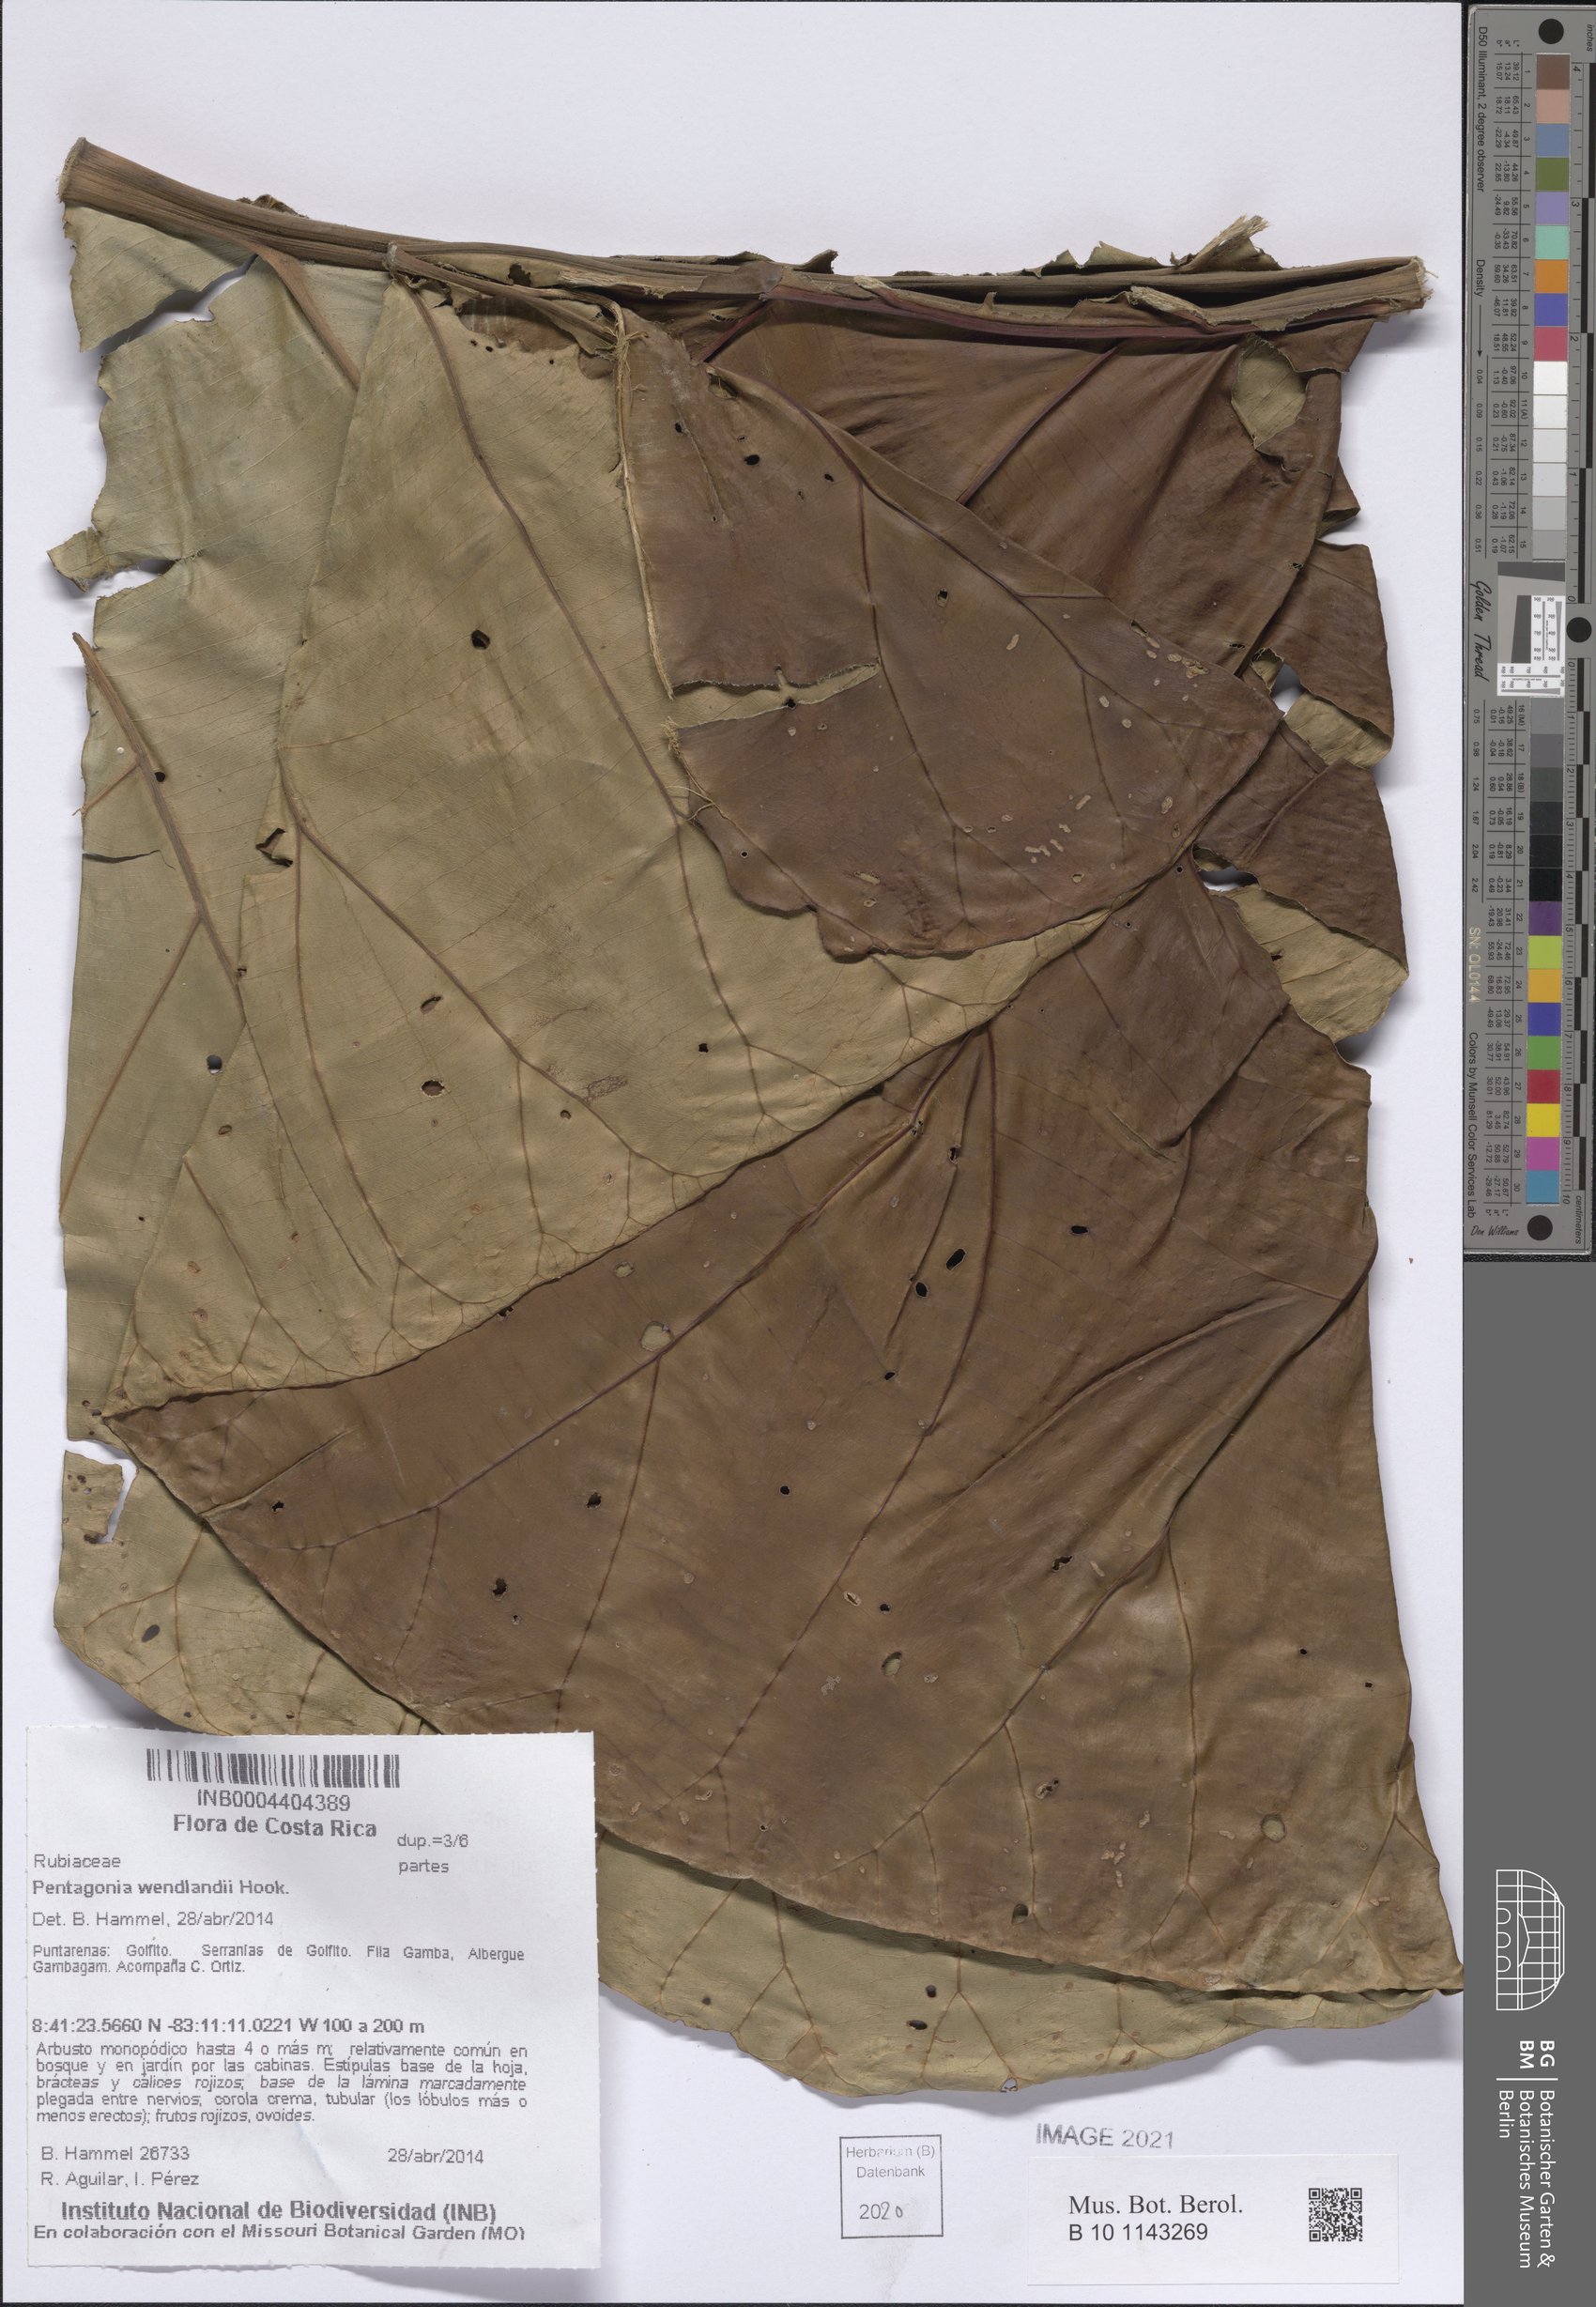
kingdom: Plantae
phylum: Tracheophyta
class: Magnoliopsida
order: Gentianales
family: Rubiaceae
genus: Pentagonia
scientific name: Pentagonia wendlandii
